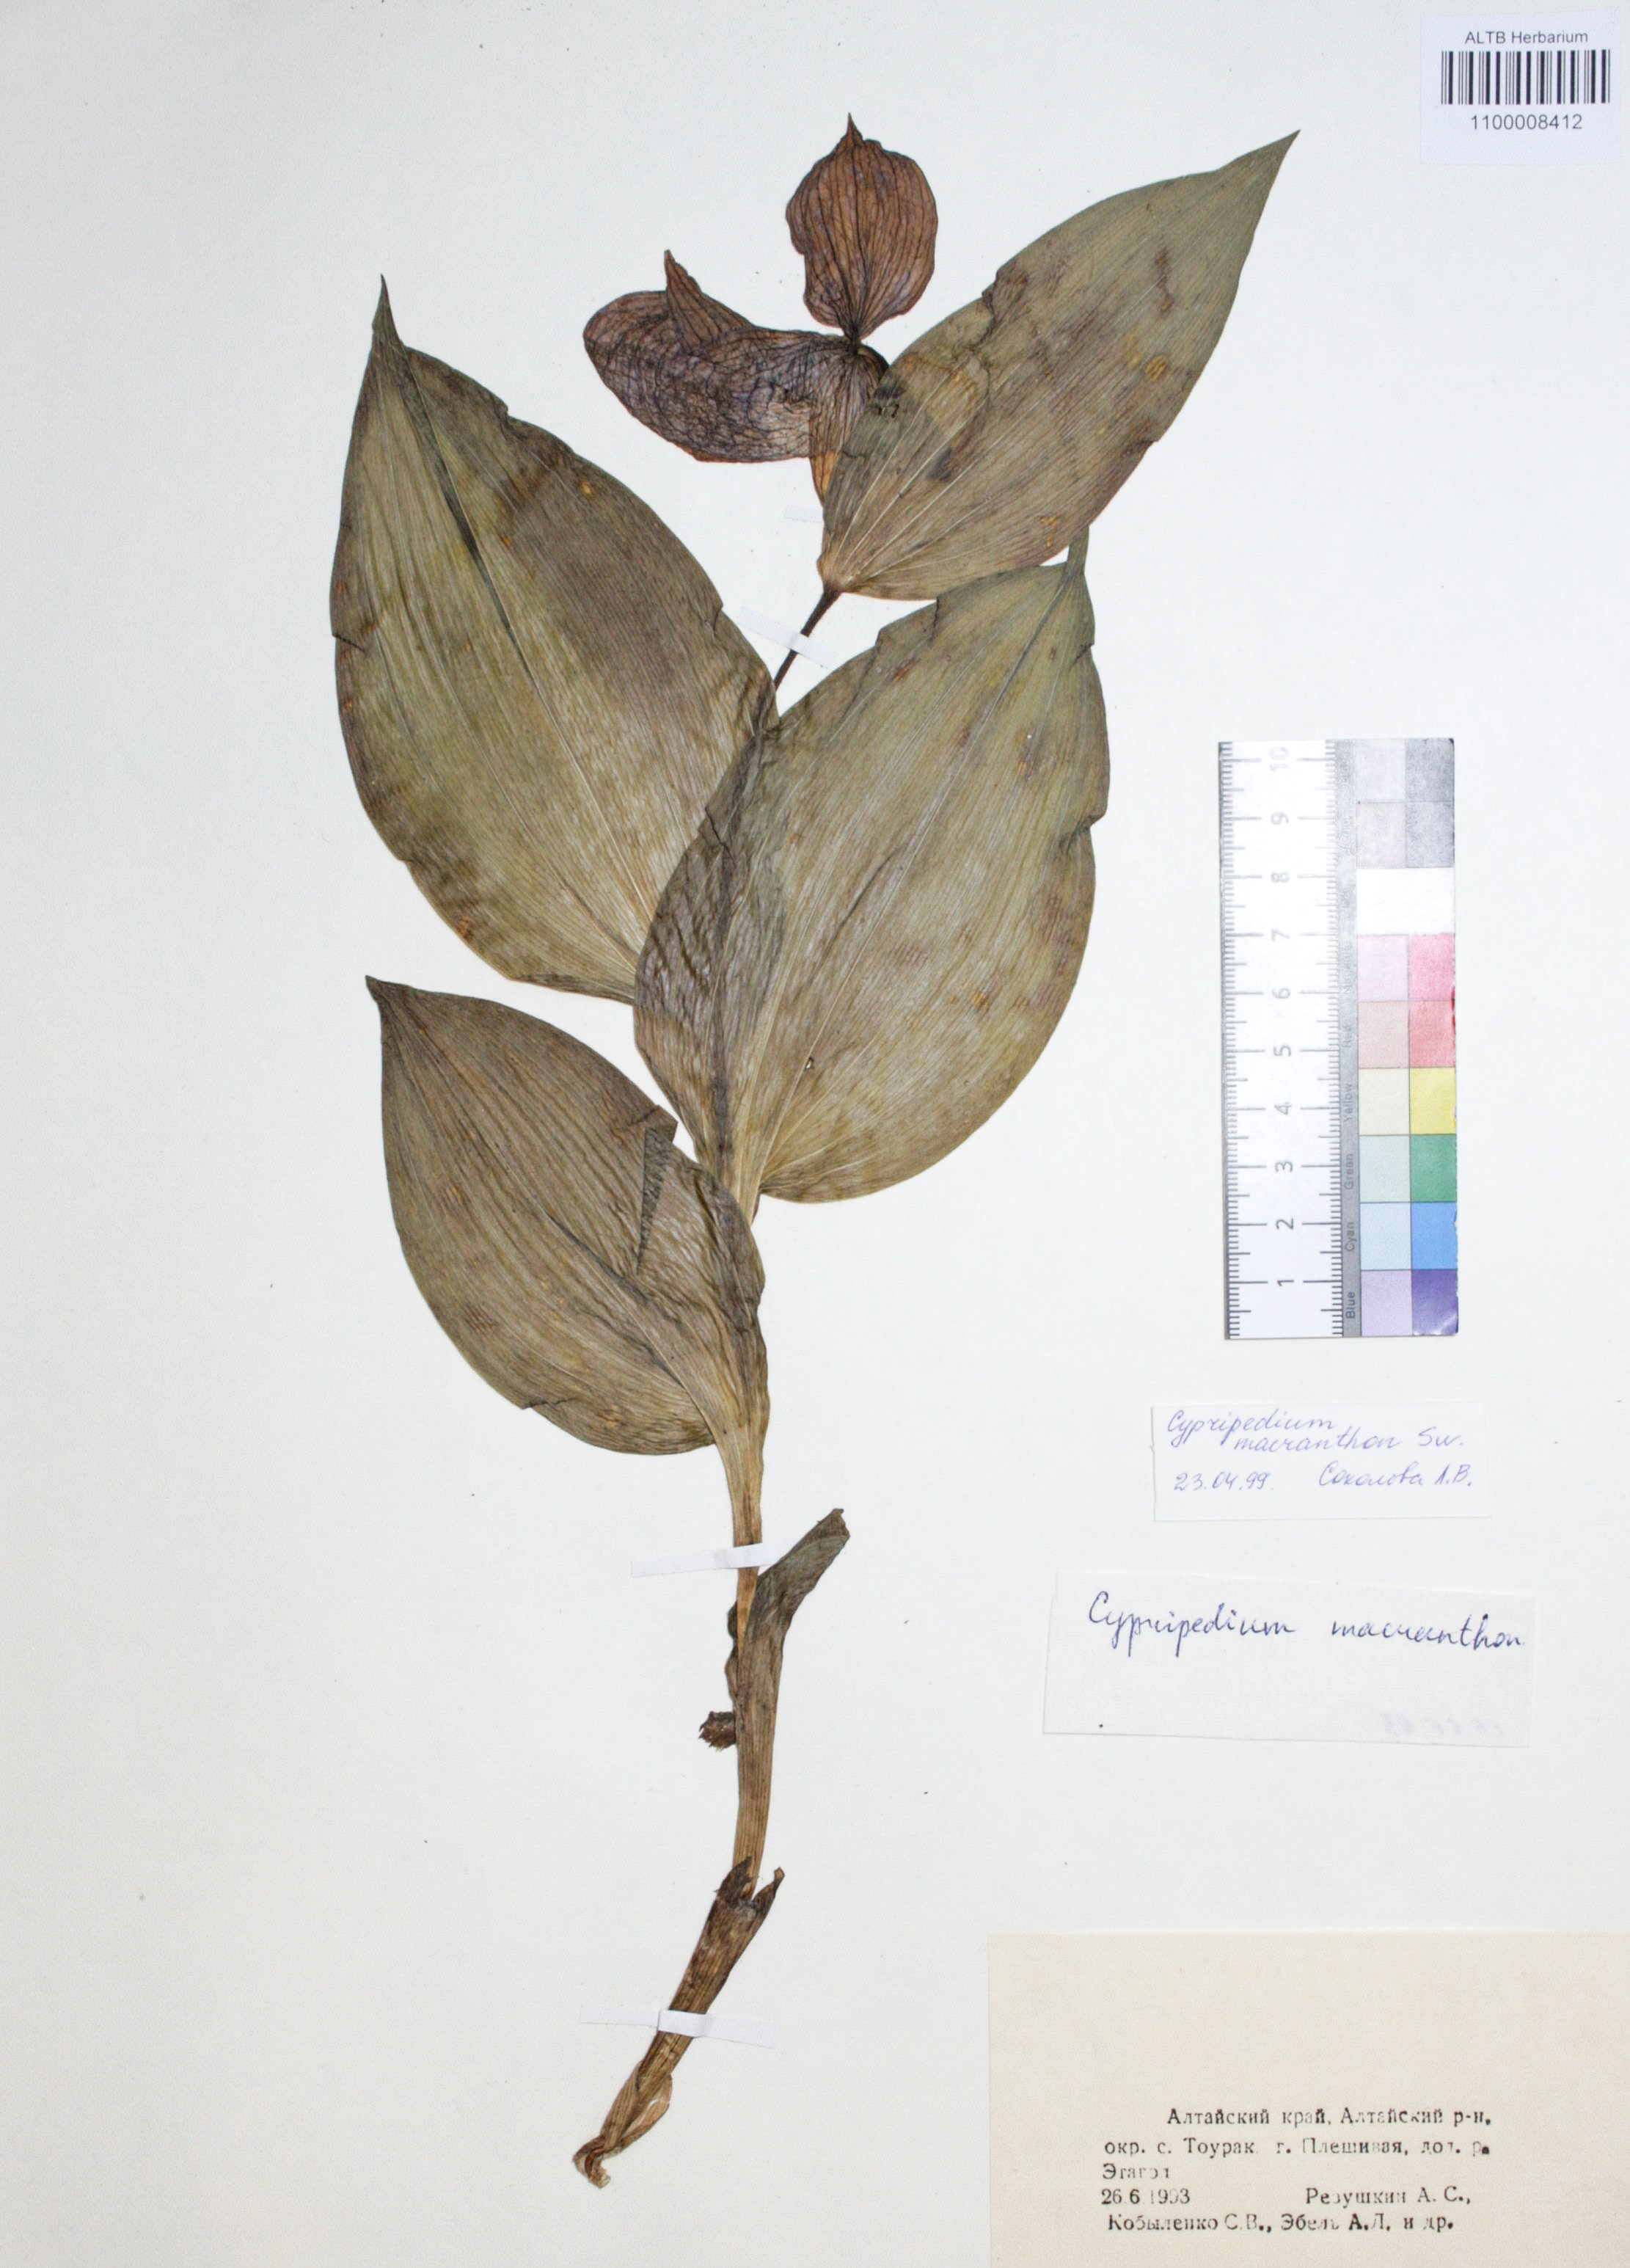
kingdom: Plantae
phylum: Tracheophyta
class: Liliopsida
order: Asparagales
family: Orchidaceae
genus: Cypripedium
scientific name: Cypripedium macranthon
